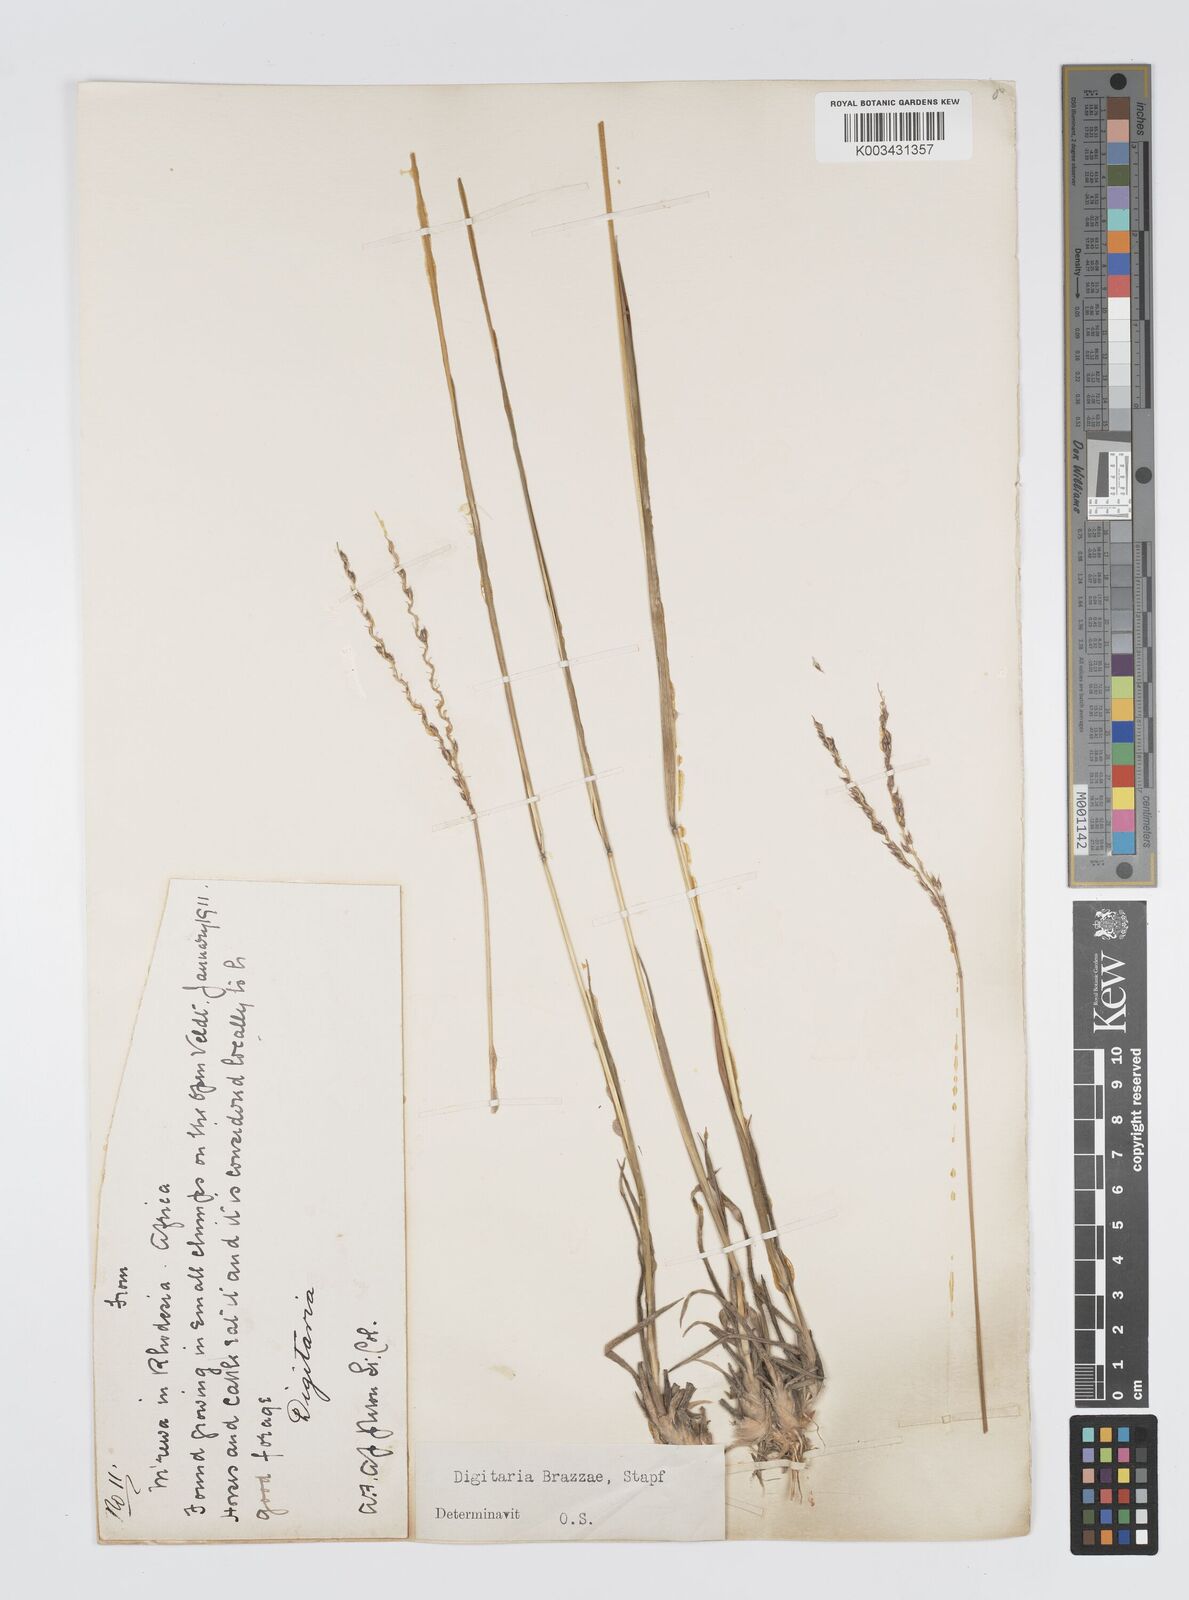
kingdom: Plantae
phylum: Tracheophyta
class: Liliopsida
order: Poales
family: Poaceae
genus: Digitaria
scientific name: Digitaria brazzae
